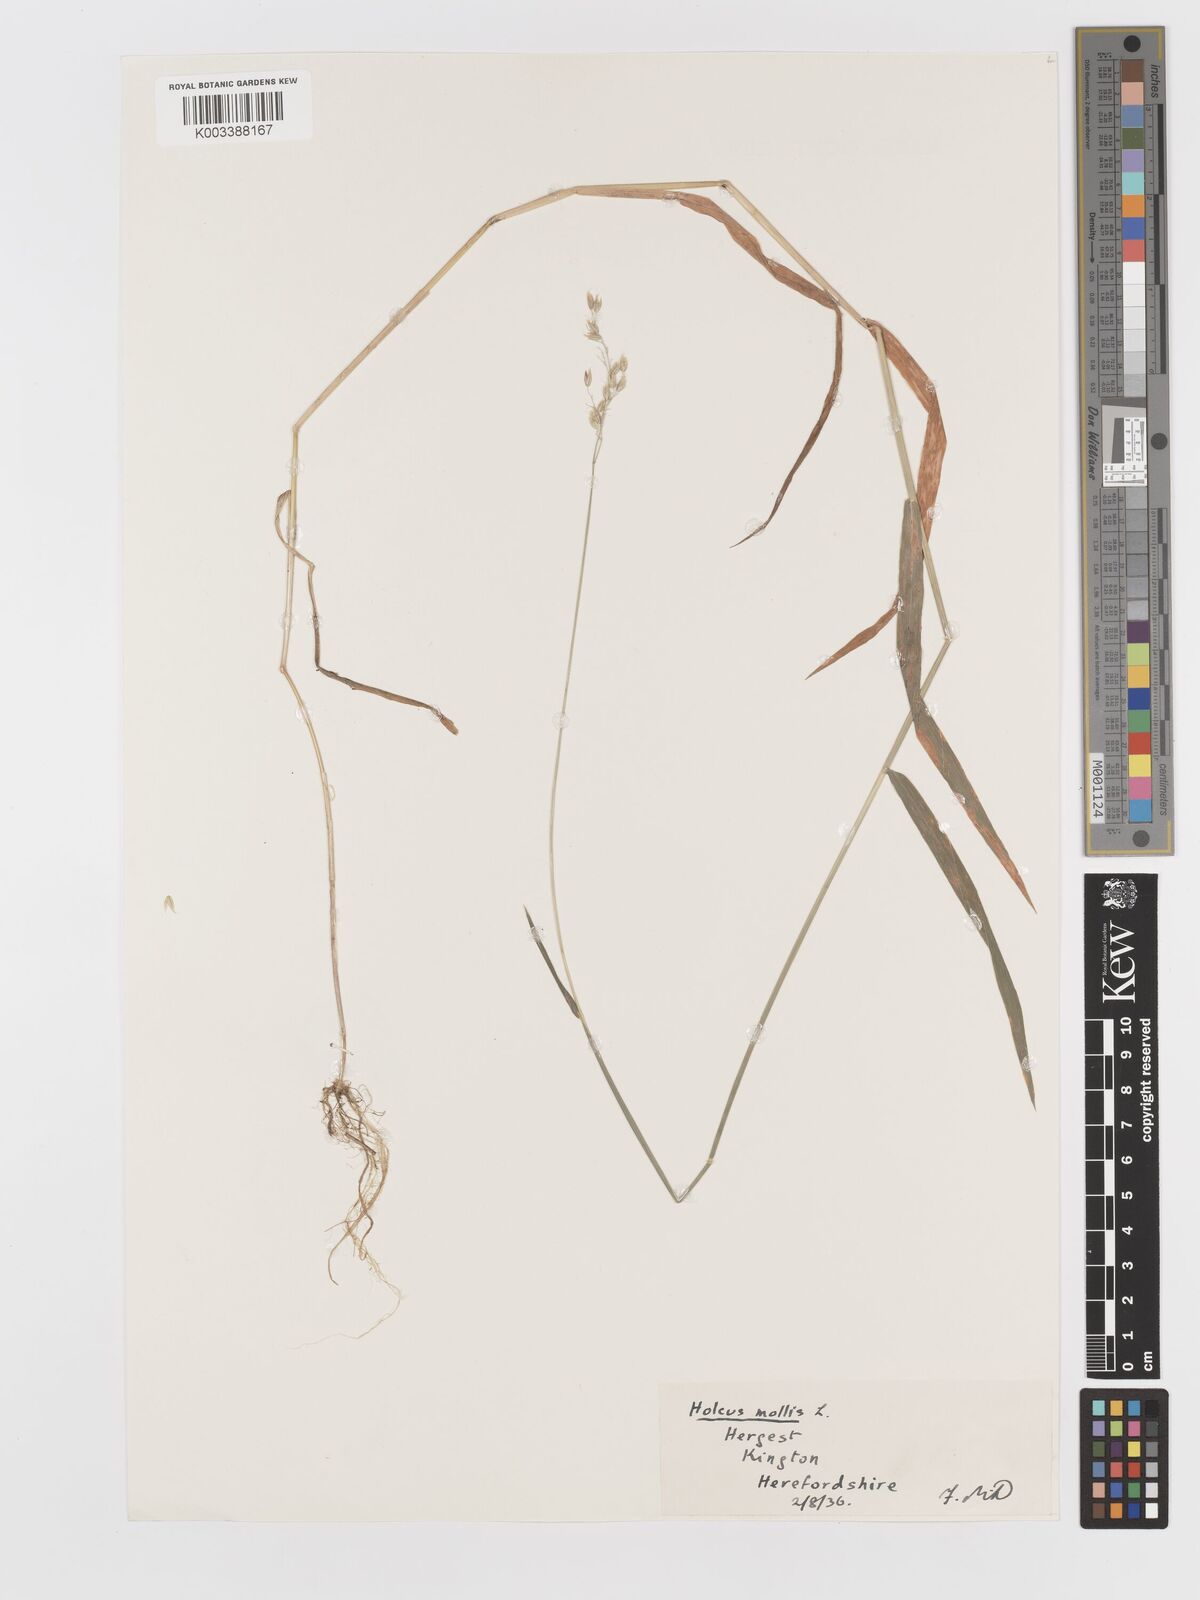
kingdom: Plantae
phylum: Tracheophyta
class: Liliopsida
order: Poales
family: Poaceae
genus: Holcus
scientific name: Holcus mollis
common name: Creeping velvetgrass
